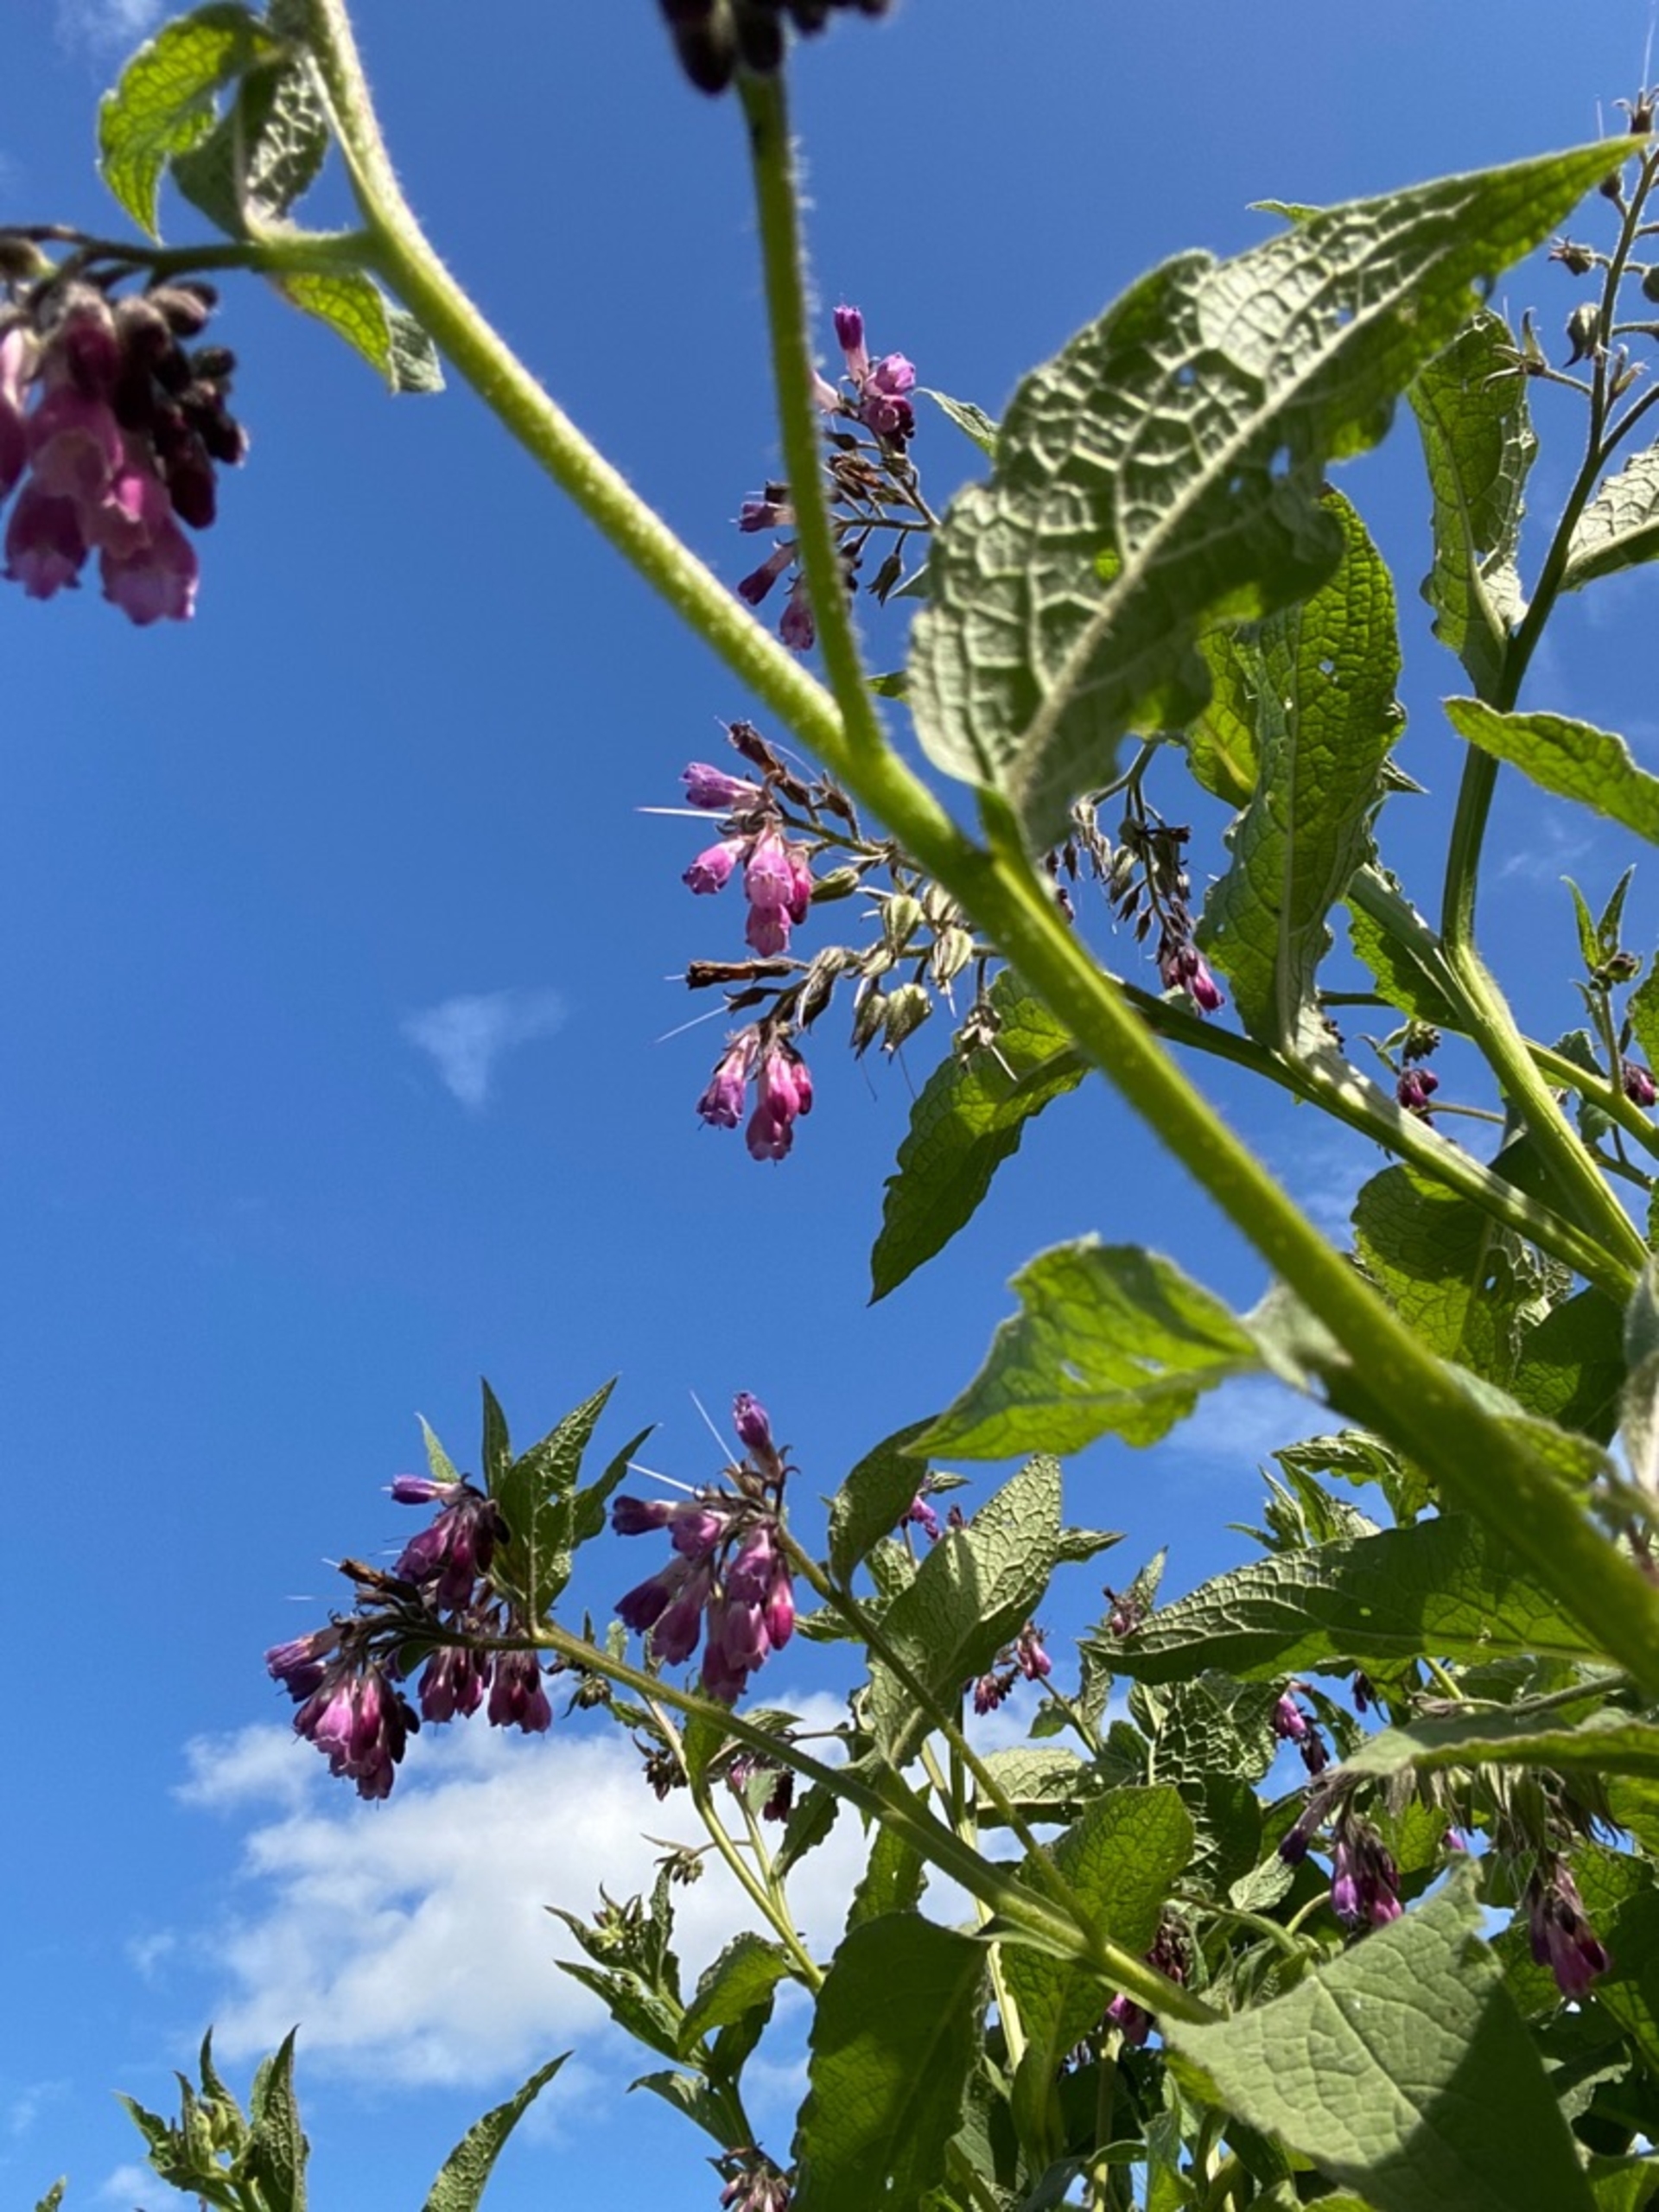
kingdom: Plantae
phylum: Tracheophyta
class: Magnoliopsida
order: Boraginales
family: Boraginaceae
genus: Symphytum
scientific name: Symphytum uplandicum
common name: Foder-kulsukker
